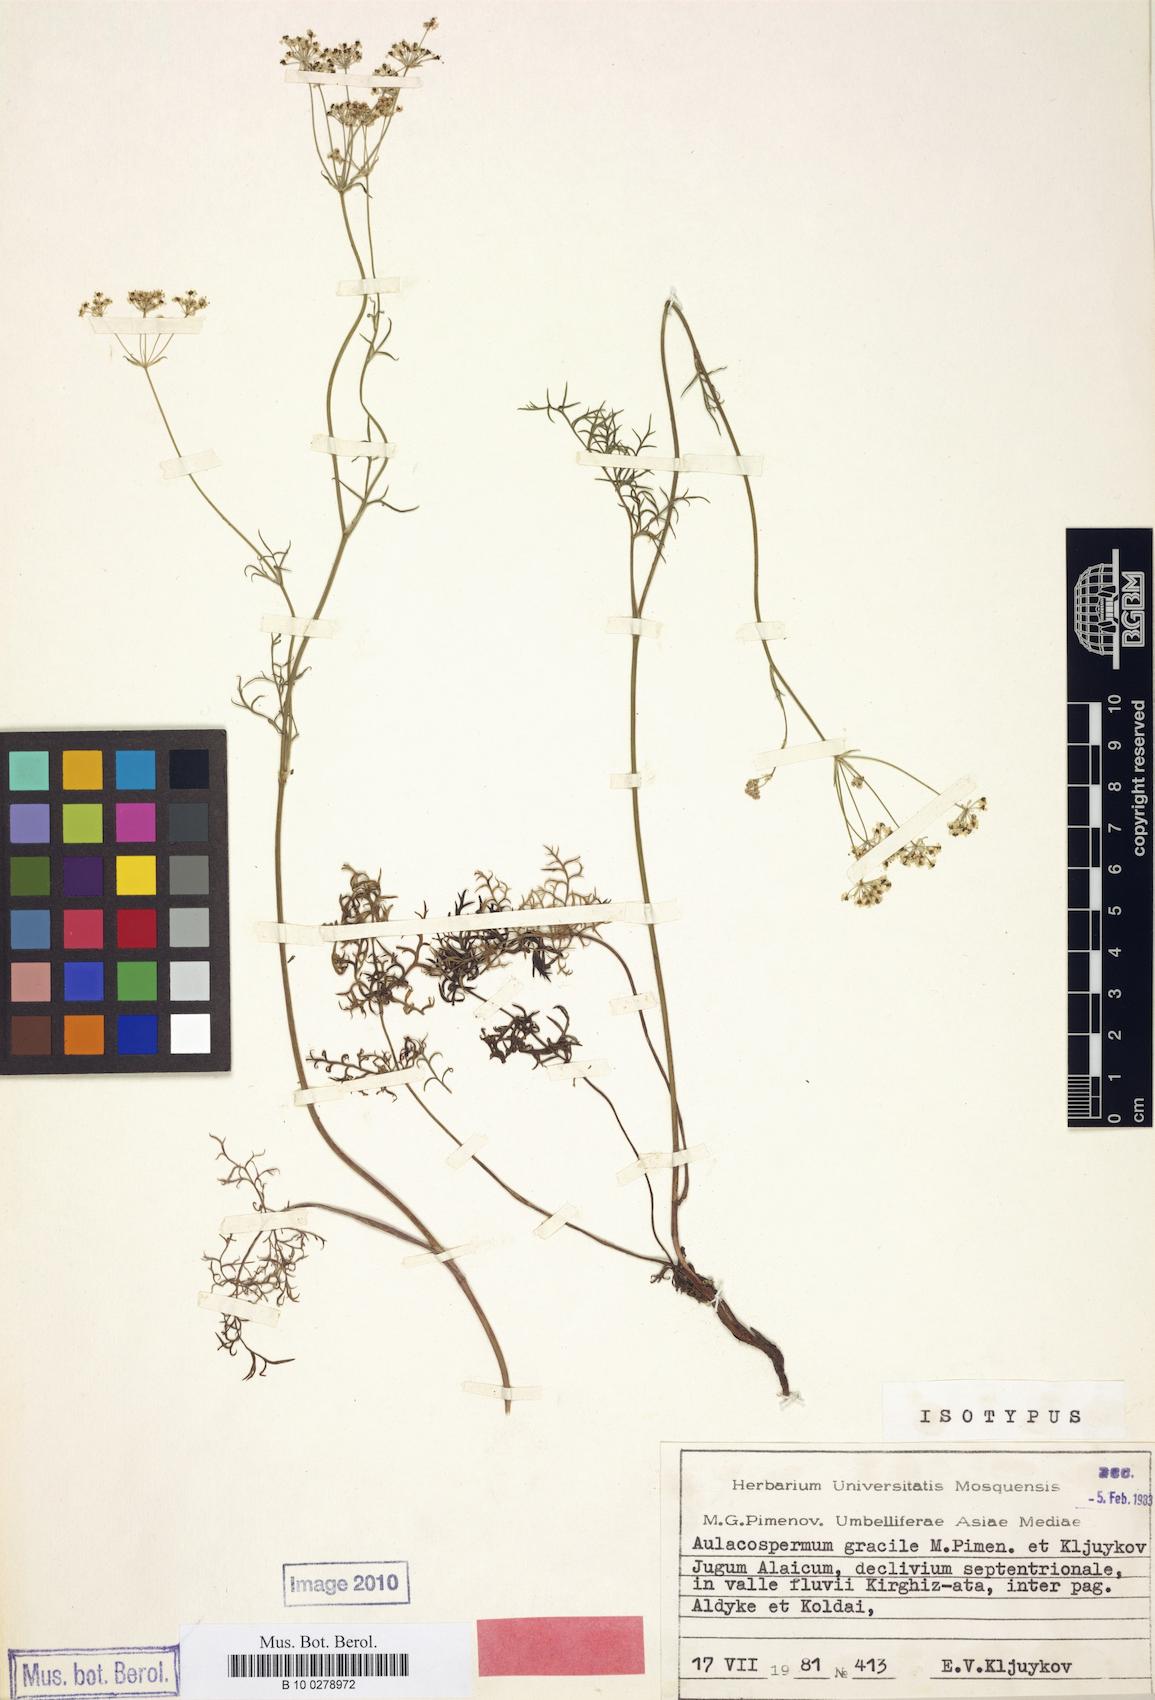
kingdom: Plantae
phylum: Tracheophyta
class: Magnoliopsida
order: Apiales
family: Apiaceae
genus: Aulacospermum
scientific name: Aulacospermum gracile
